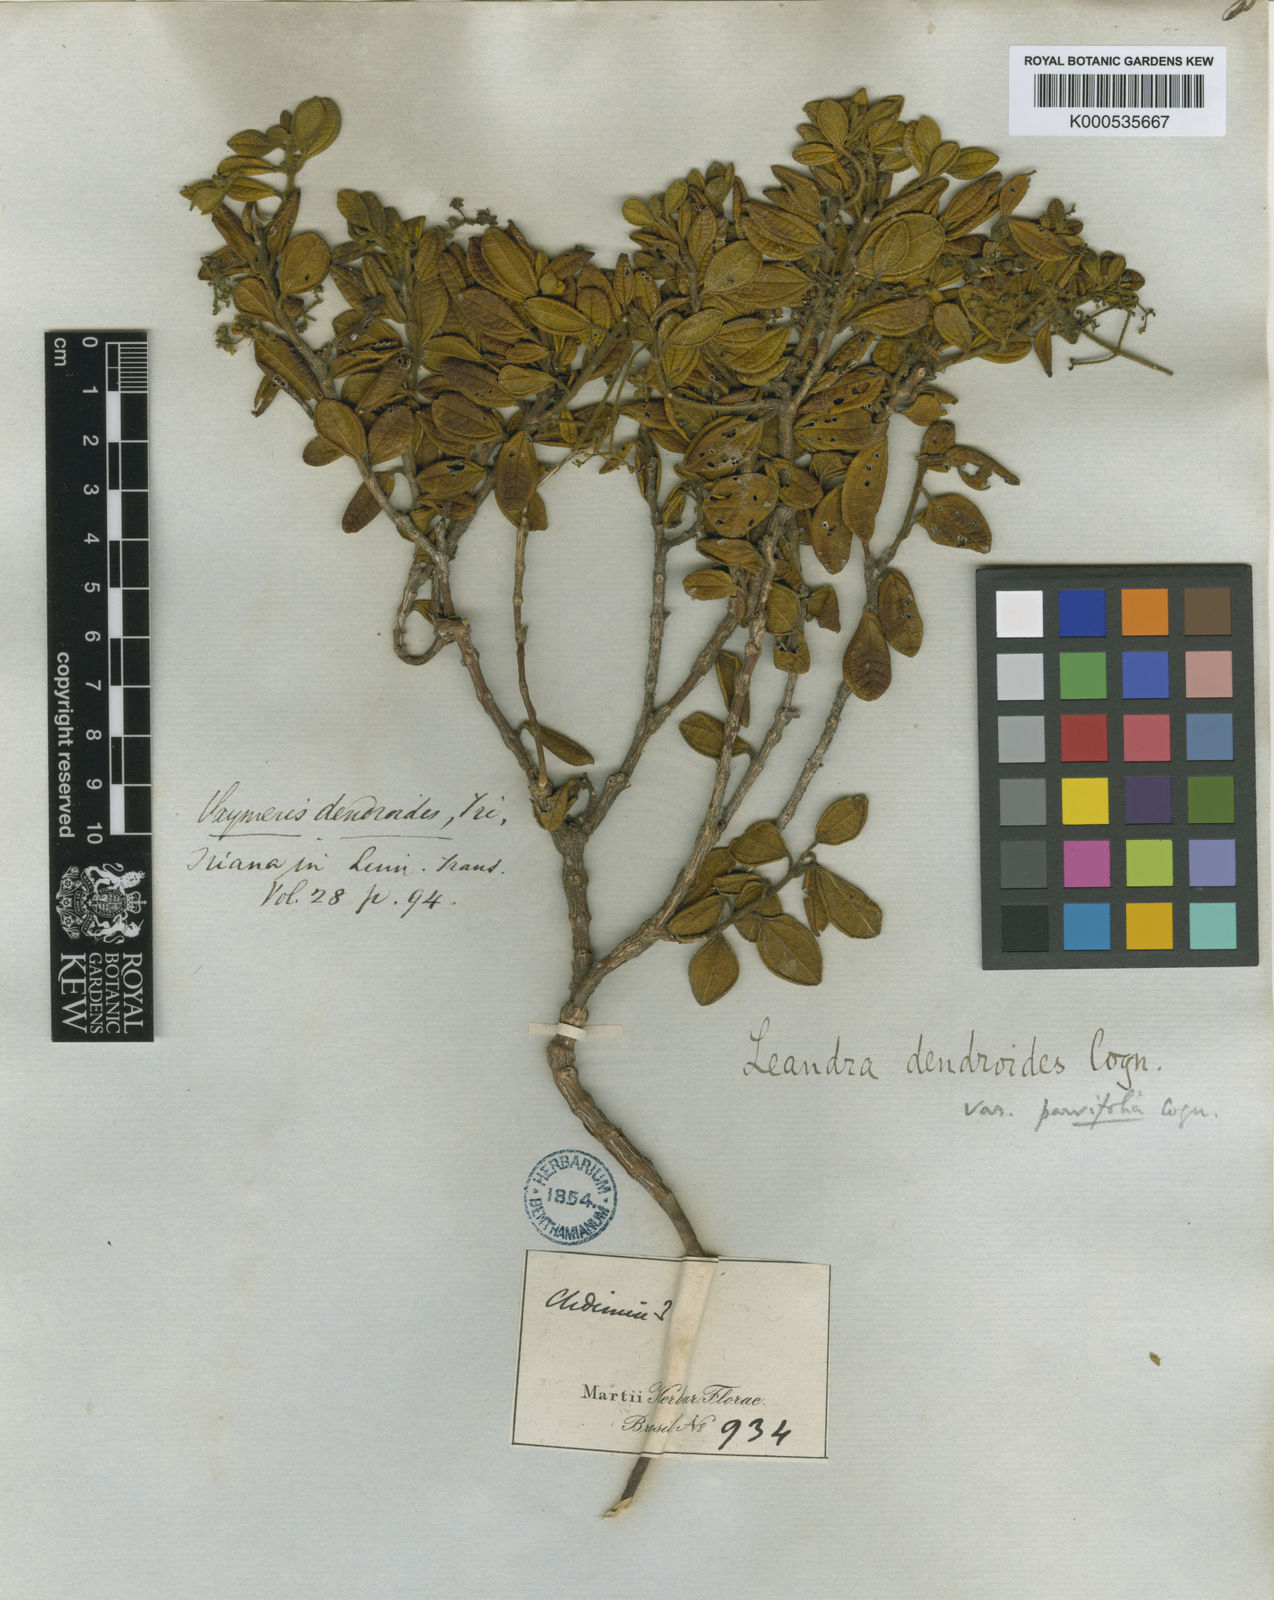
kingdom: Plantae
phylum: Tracheophyta
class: Magnoliopsida
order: Myrtales
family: Melastomataceae
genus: Miconia
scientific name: Miconia dendroides
